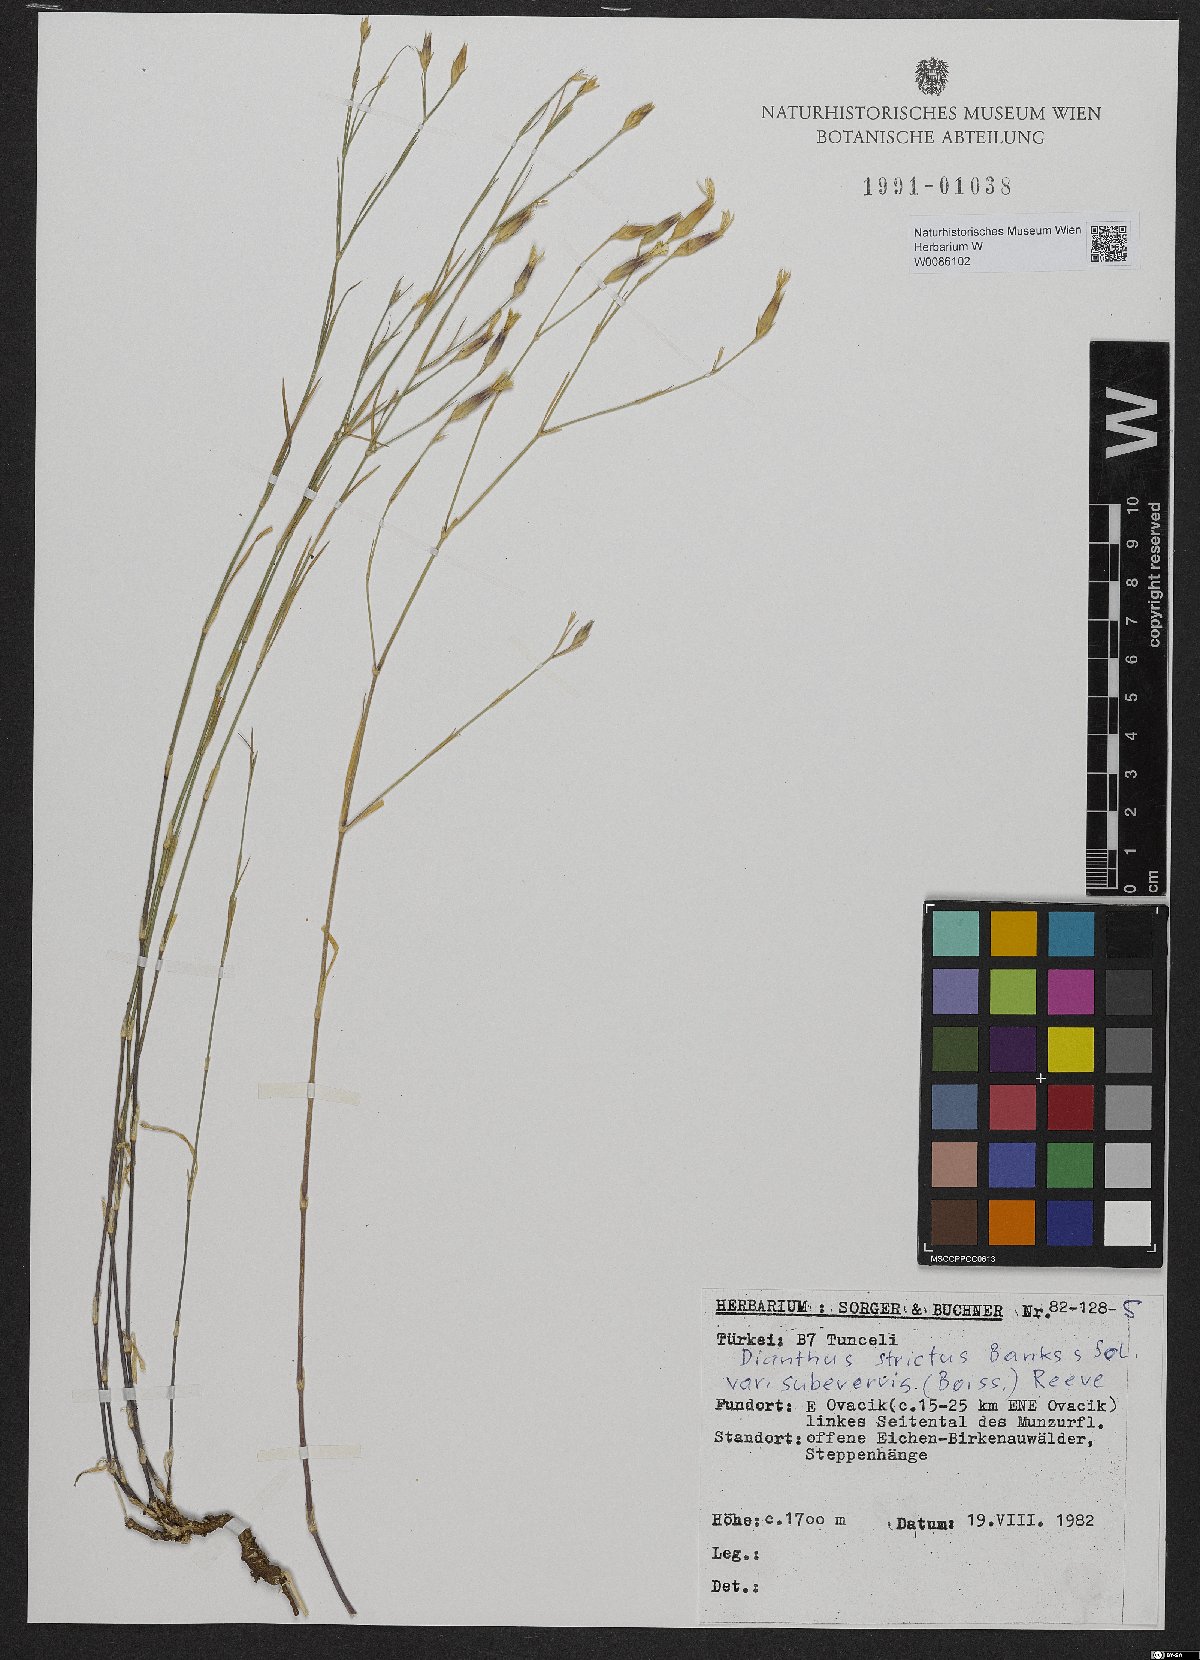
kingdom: Plantae
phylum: Tracheophyta
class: Magnoliopsida
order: Caryophyllales
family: Caryophyllaceae
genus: Dianthus
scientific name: Dianthus strictus
